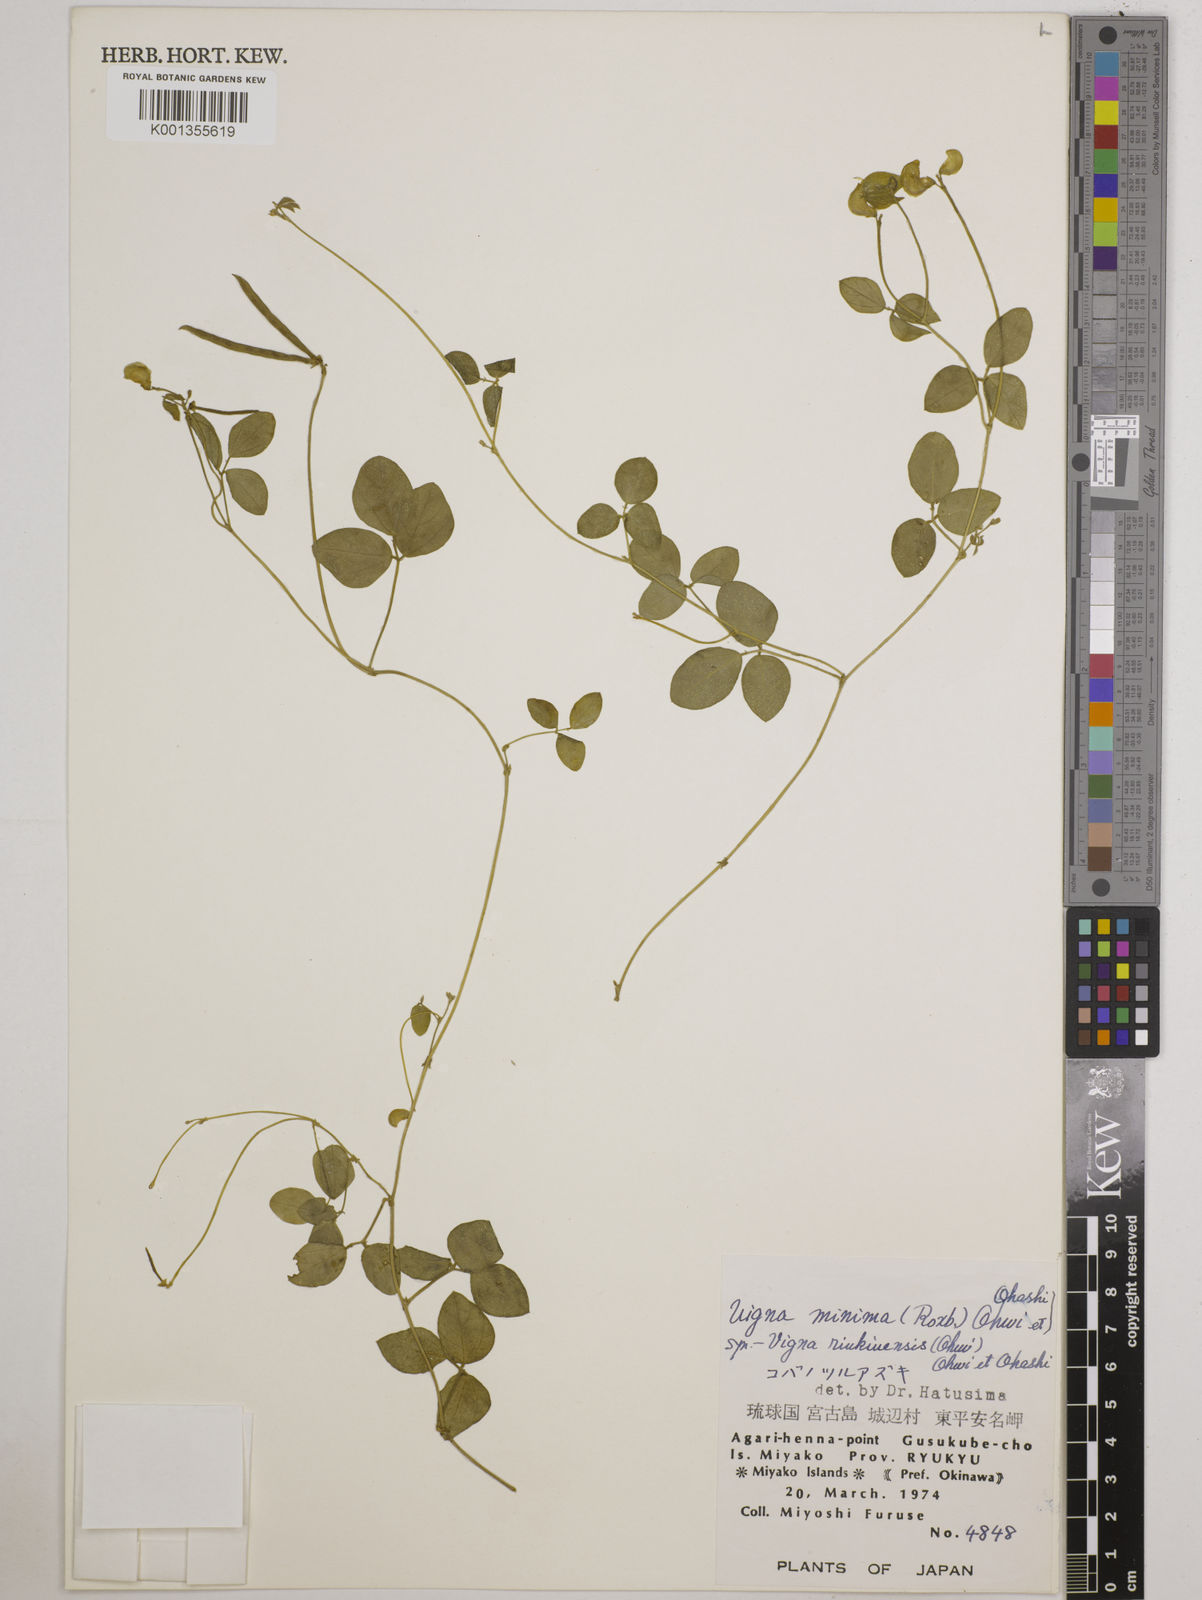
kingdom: Plantae
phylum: Tracheophyta
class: Magnoliopsida
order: Fabales
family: Fabaceae
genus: Vigna
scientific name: Vigna minima
